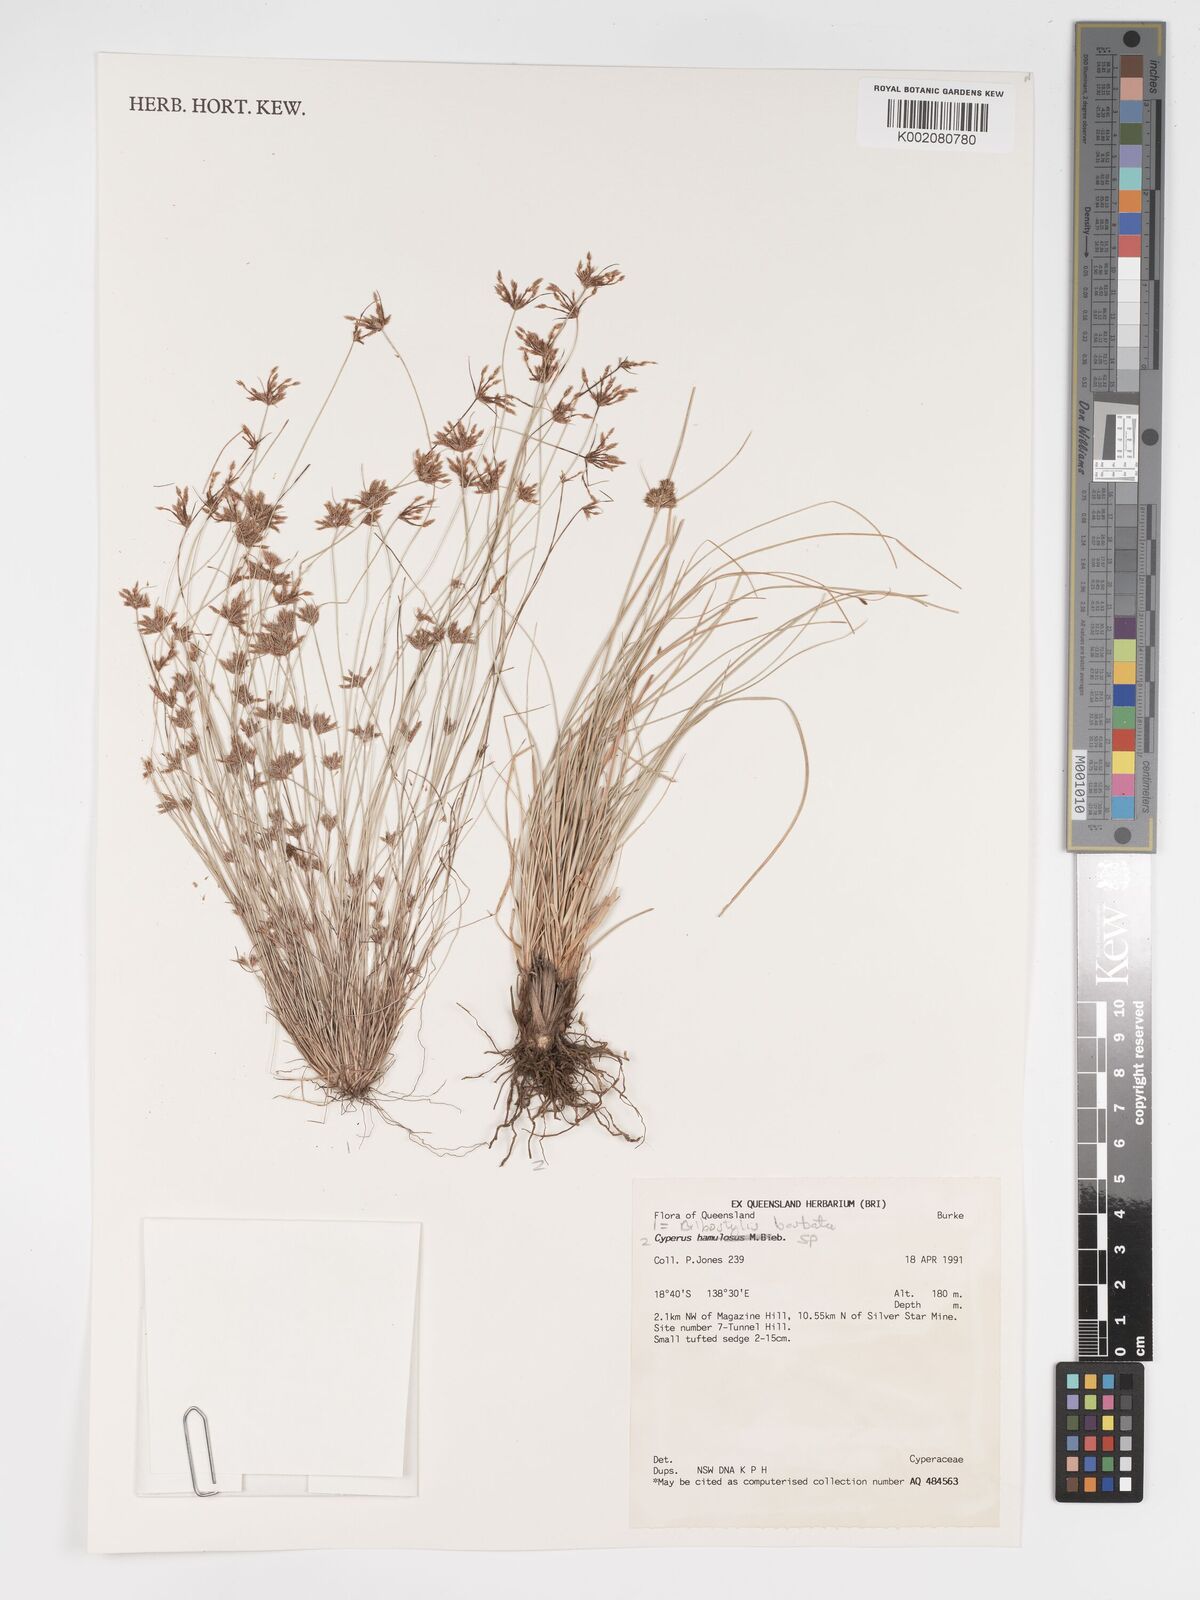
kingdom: Plantae
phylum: Tracheophyta
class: Liliopsida
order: Poales
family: Cyperaceae
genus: Bulbostylis
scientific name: Bulbostylis barbata
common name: Watergrass
